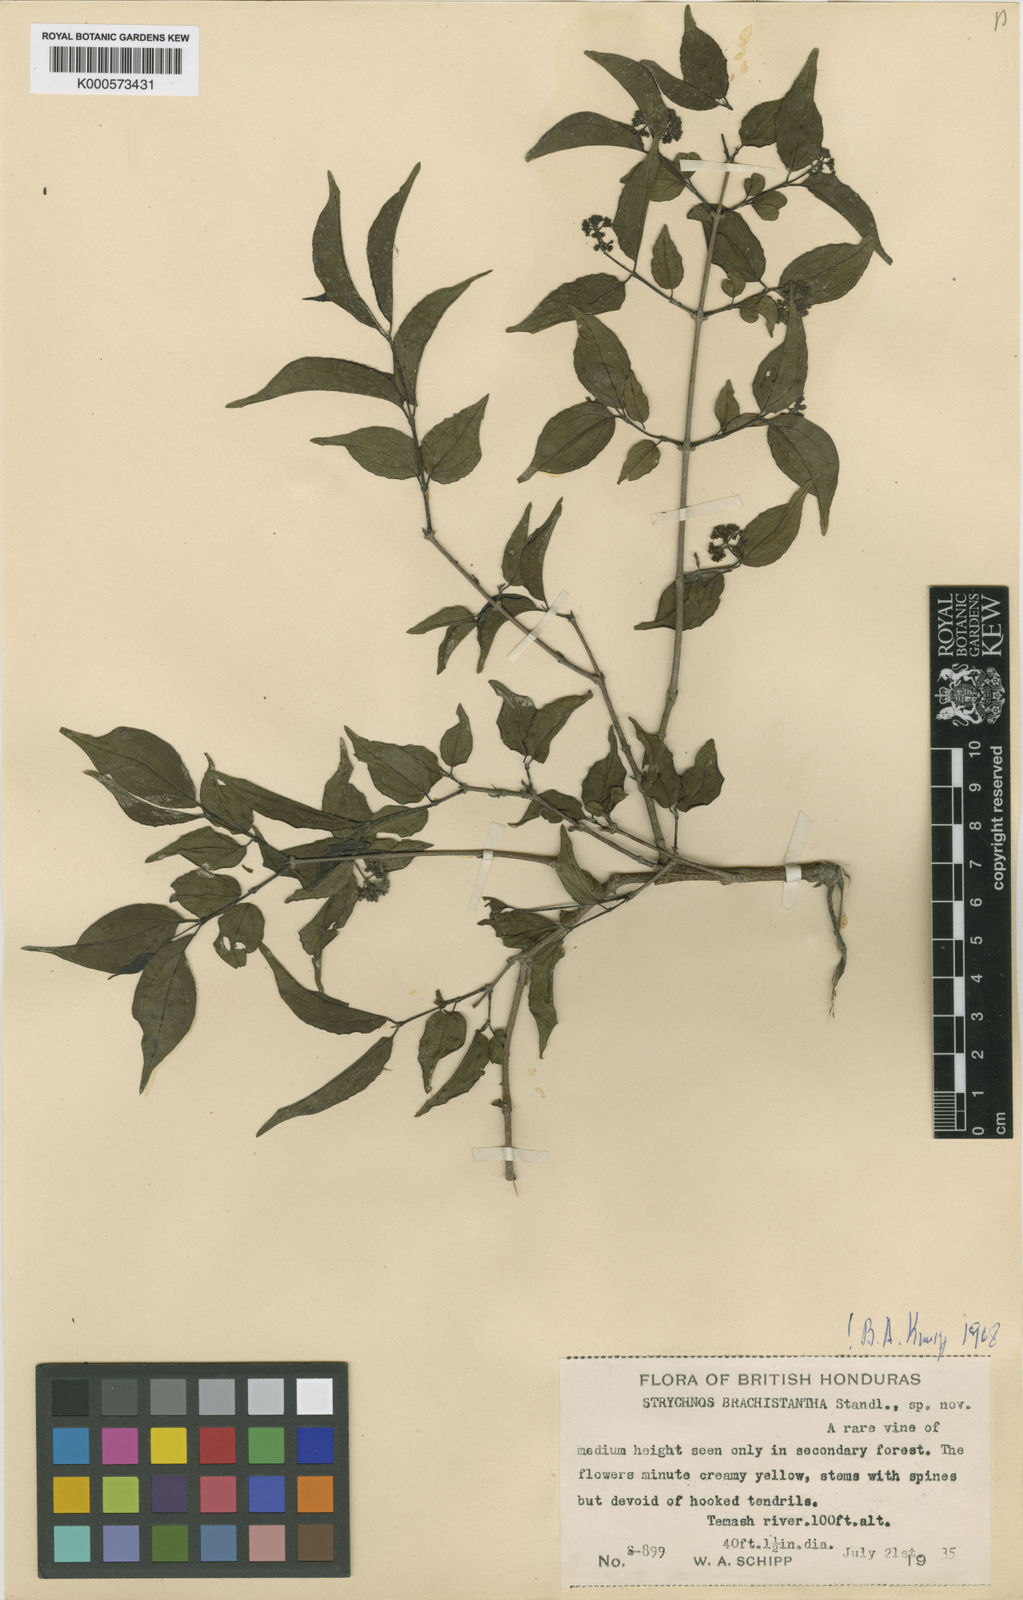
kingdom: Plantae
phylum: Tracheophyta
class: Magnoliopsida
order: Gentianales
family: Loganiaceae
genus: Strychnos
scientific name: Strychnos brachistantha
